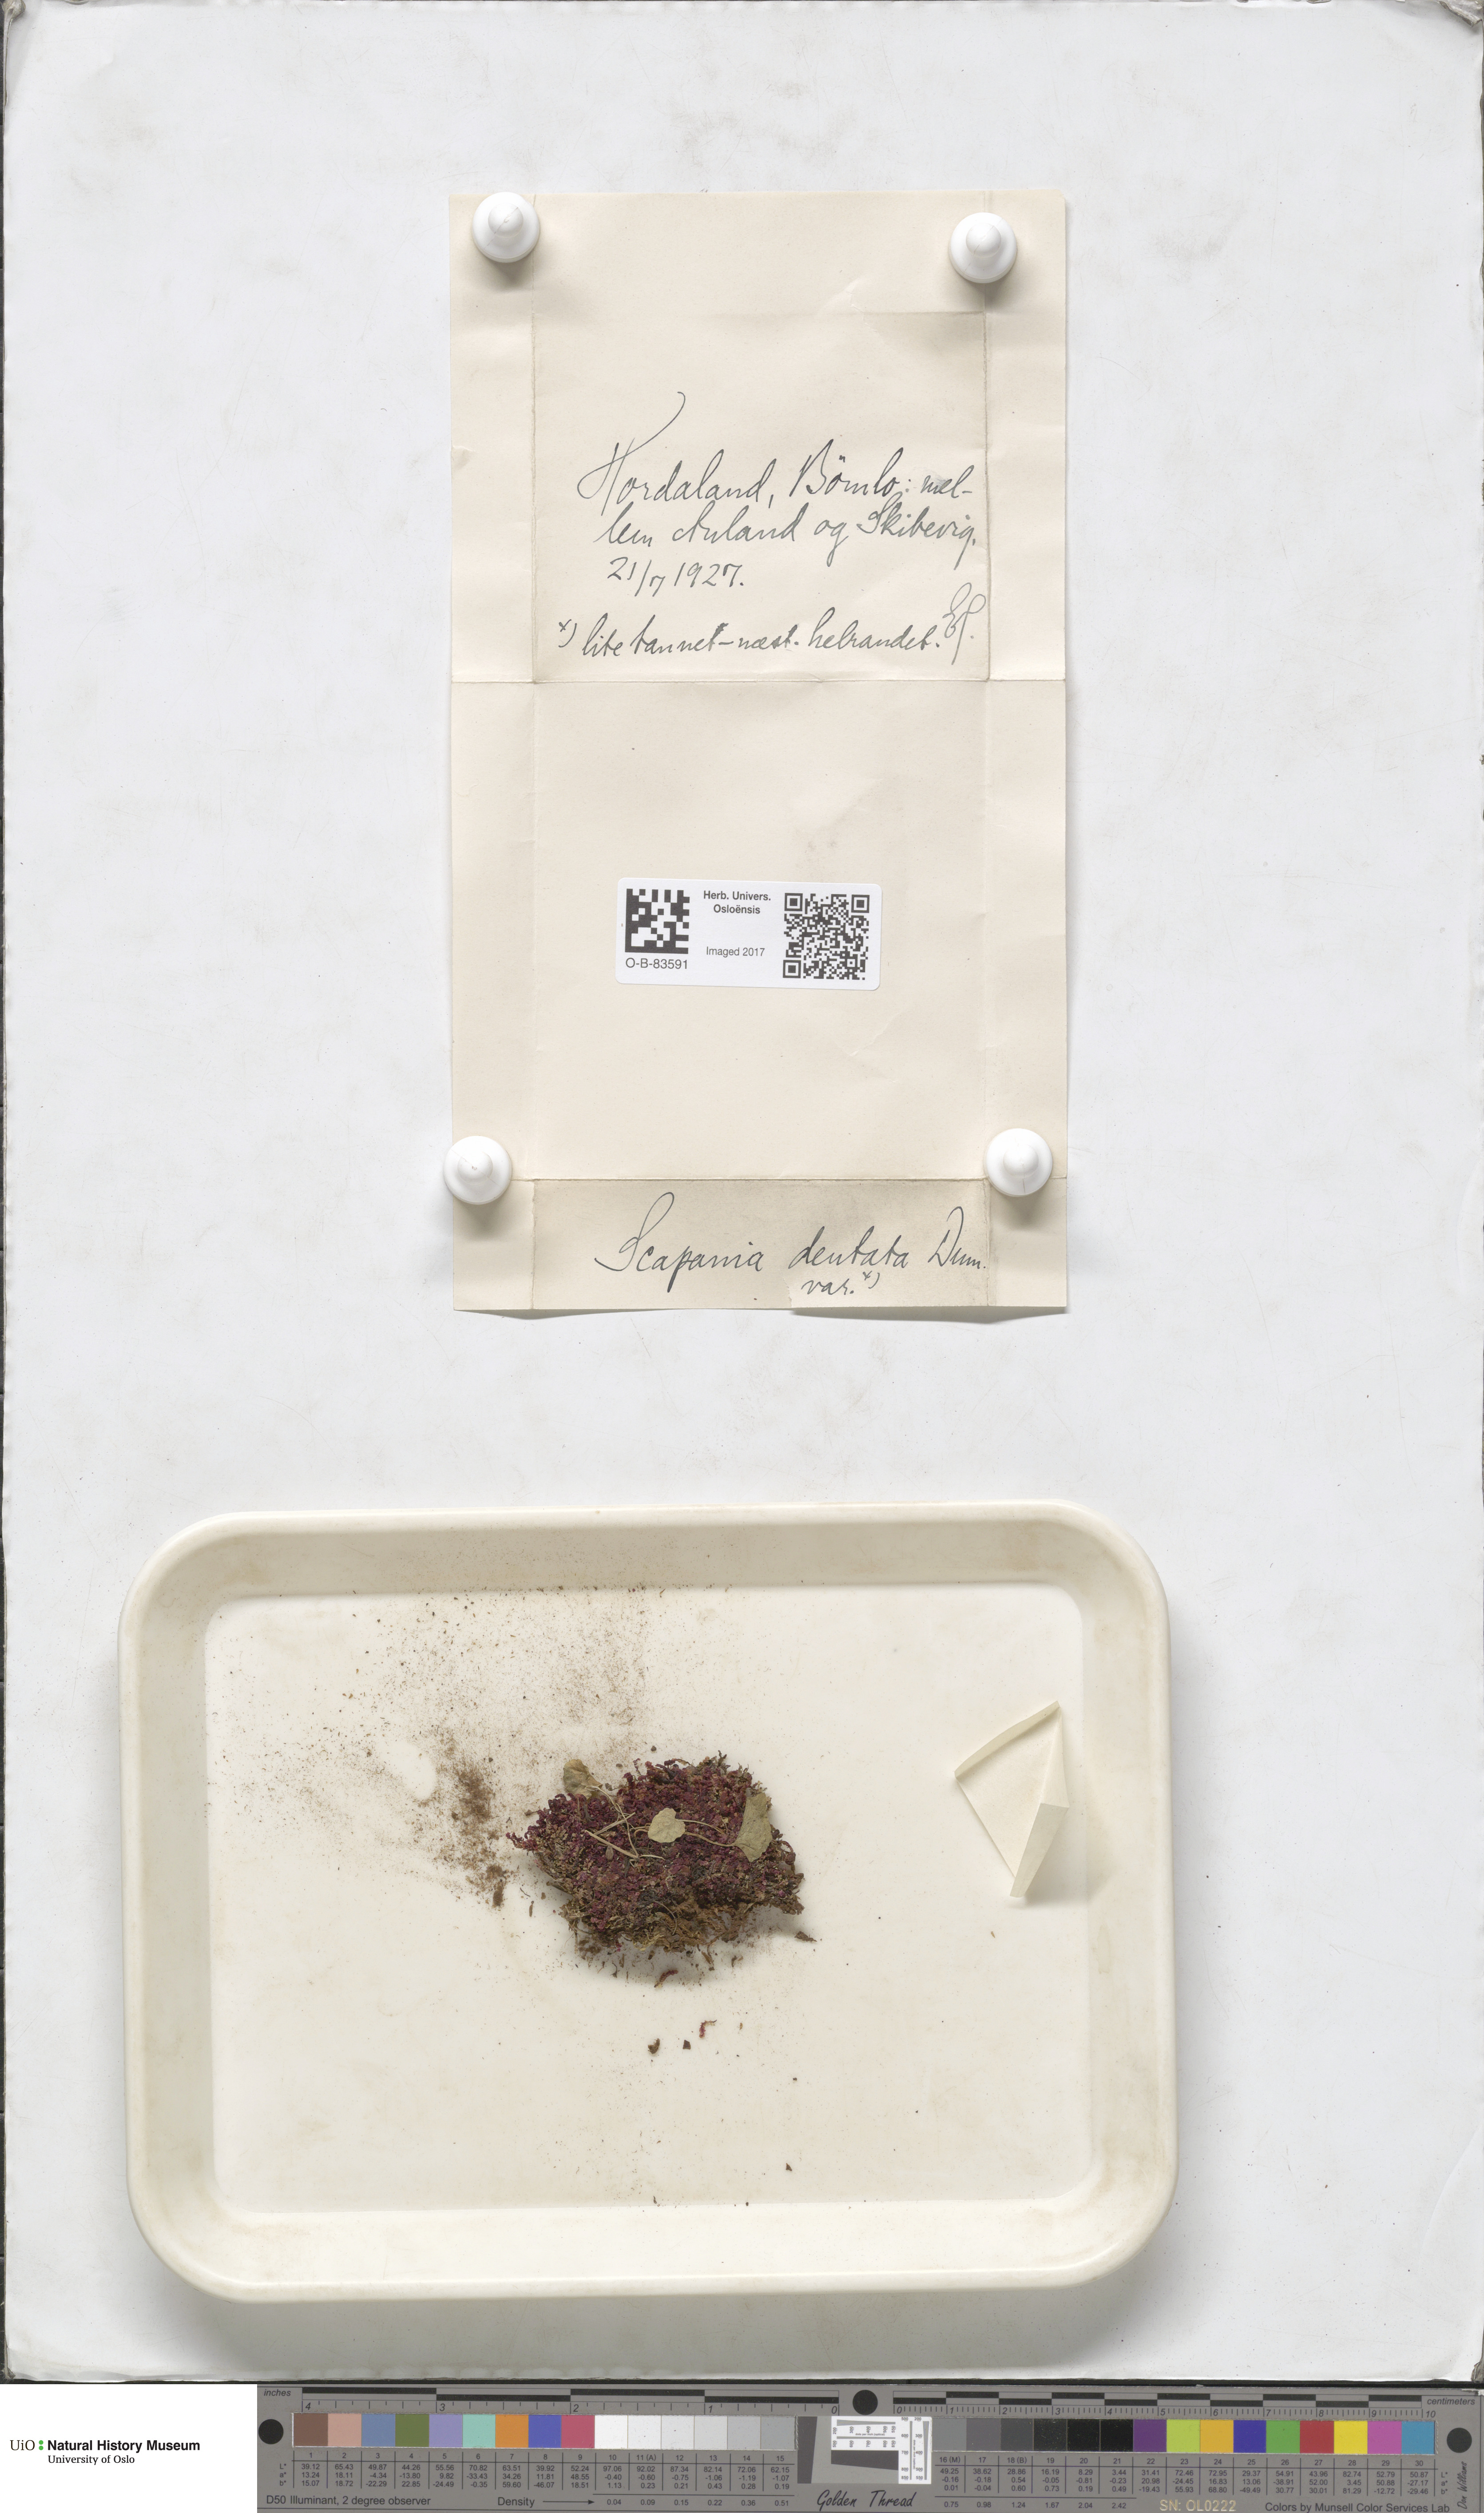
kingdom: Plantae
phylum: Marchantiophyta
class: Jungermanniopsida
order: Jungermanniales
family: Scapaniaceae
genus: Scapania
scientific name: Scapania undulata
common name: Water earwort
